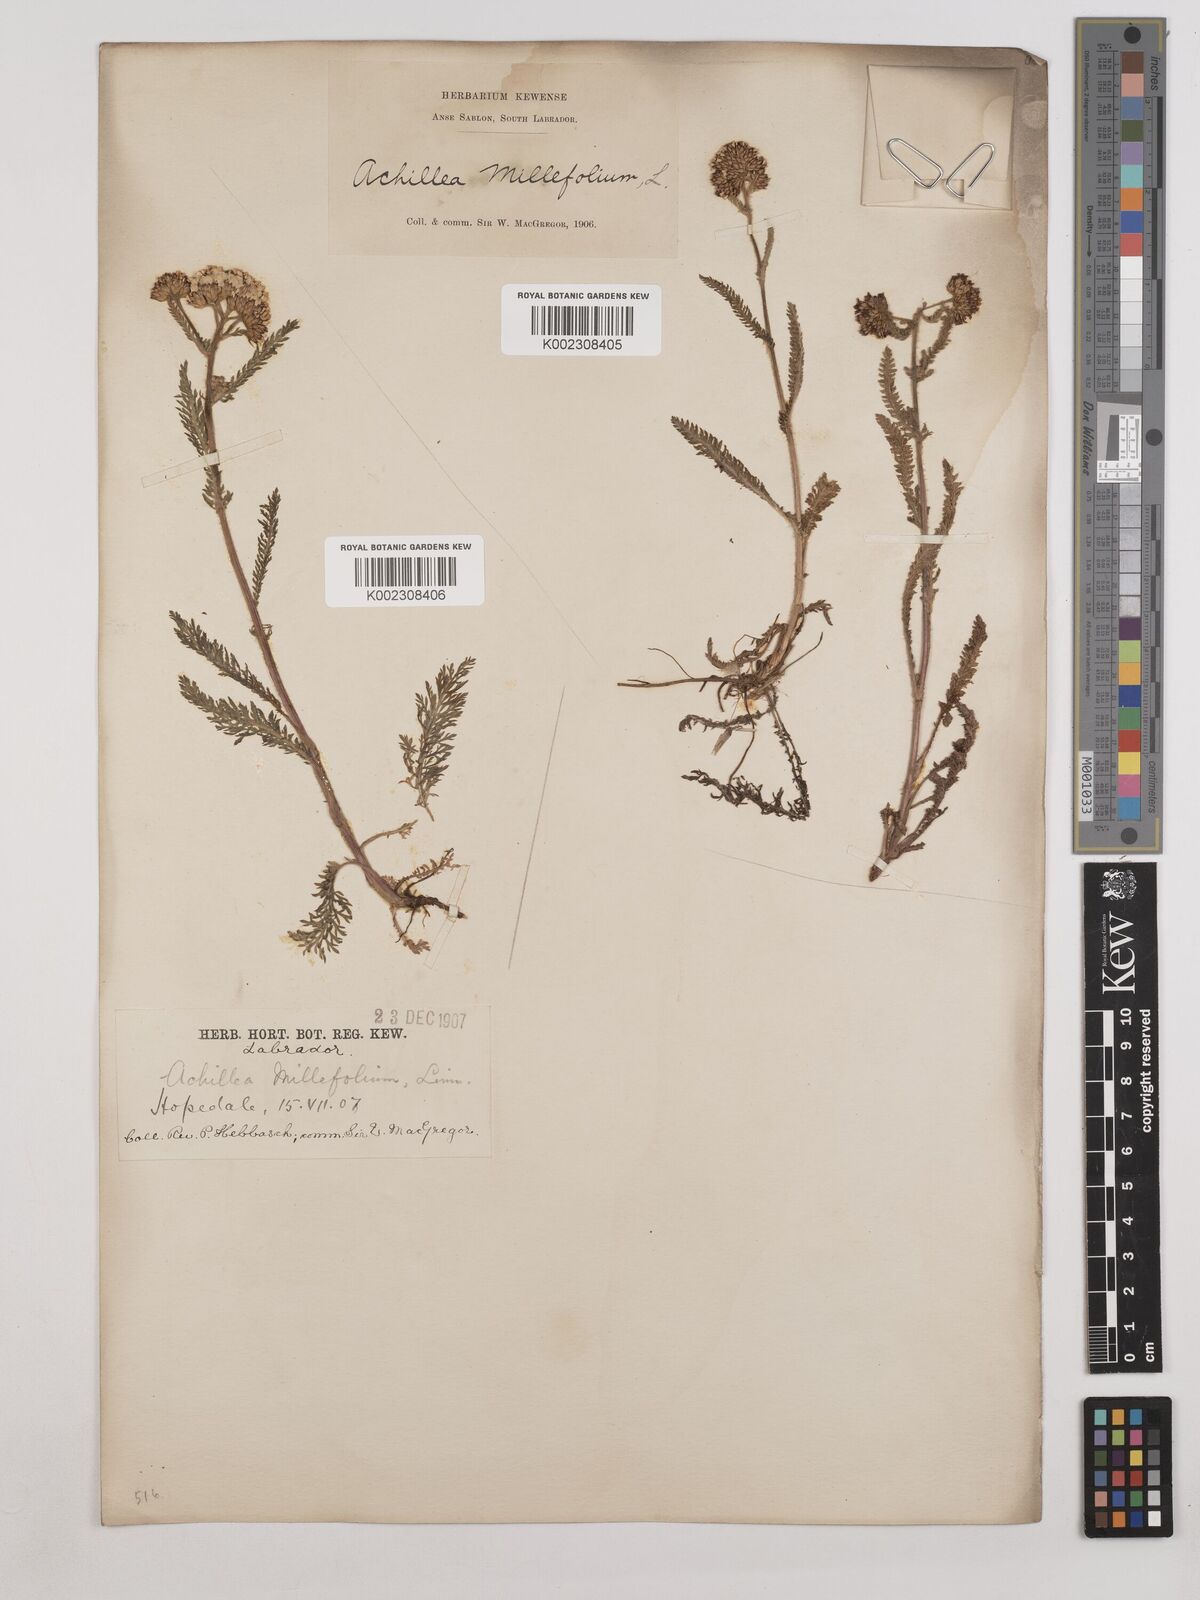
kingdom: Plantae
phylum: Tracheophyta
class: Magnoliopsida
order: Asterales
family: Asteraceae
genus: Achillea
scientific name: Achillea millefolium
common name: Yarrow
